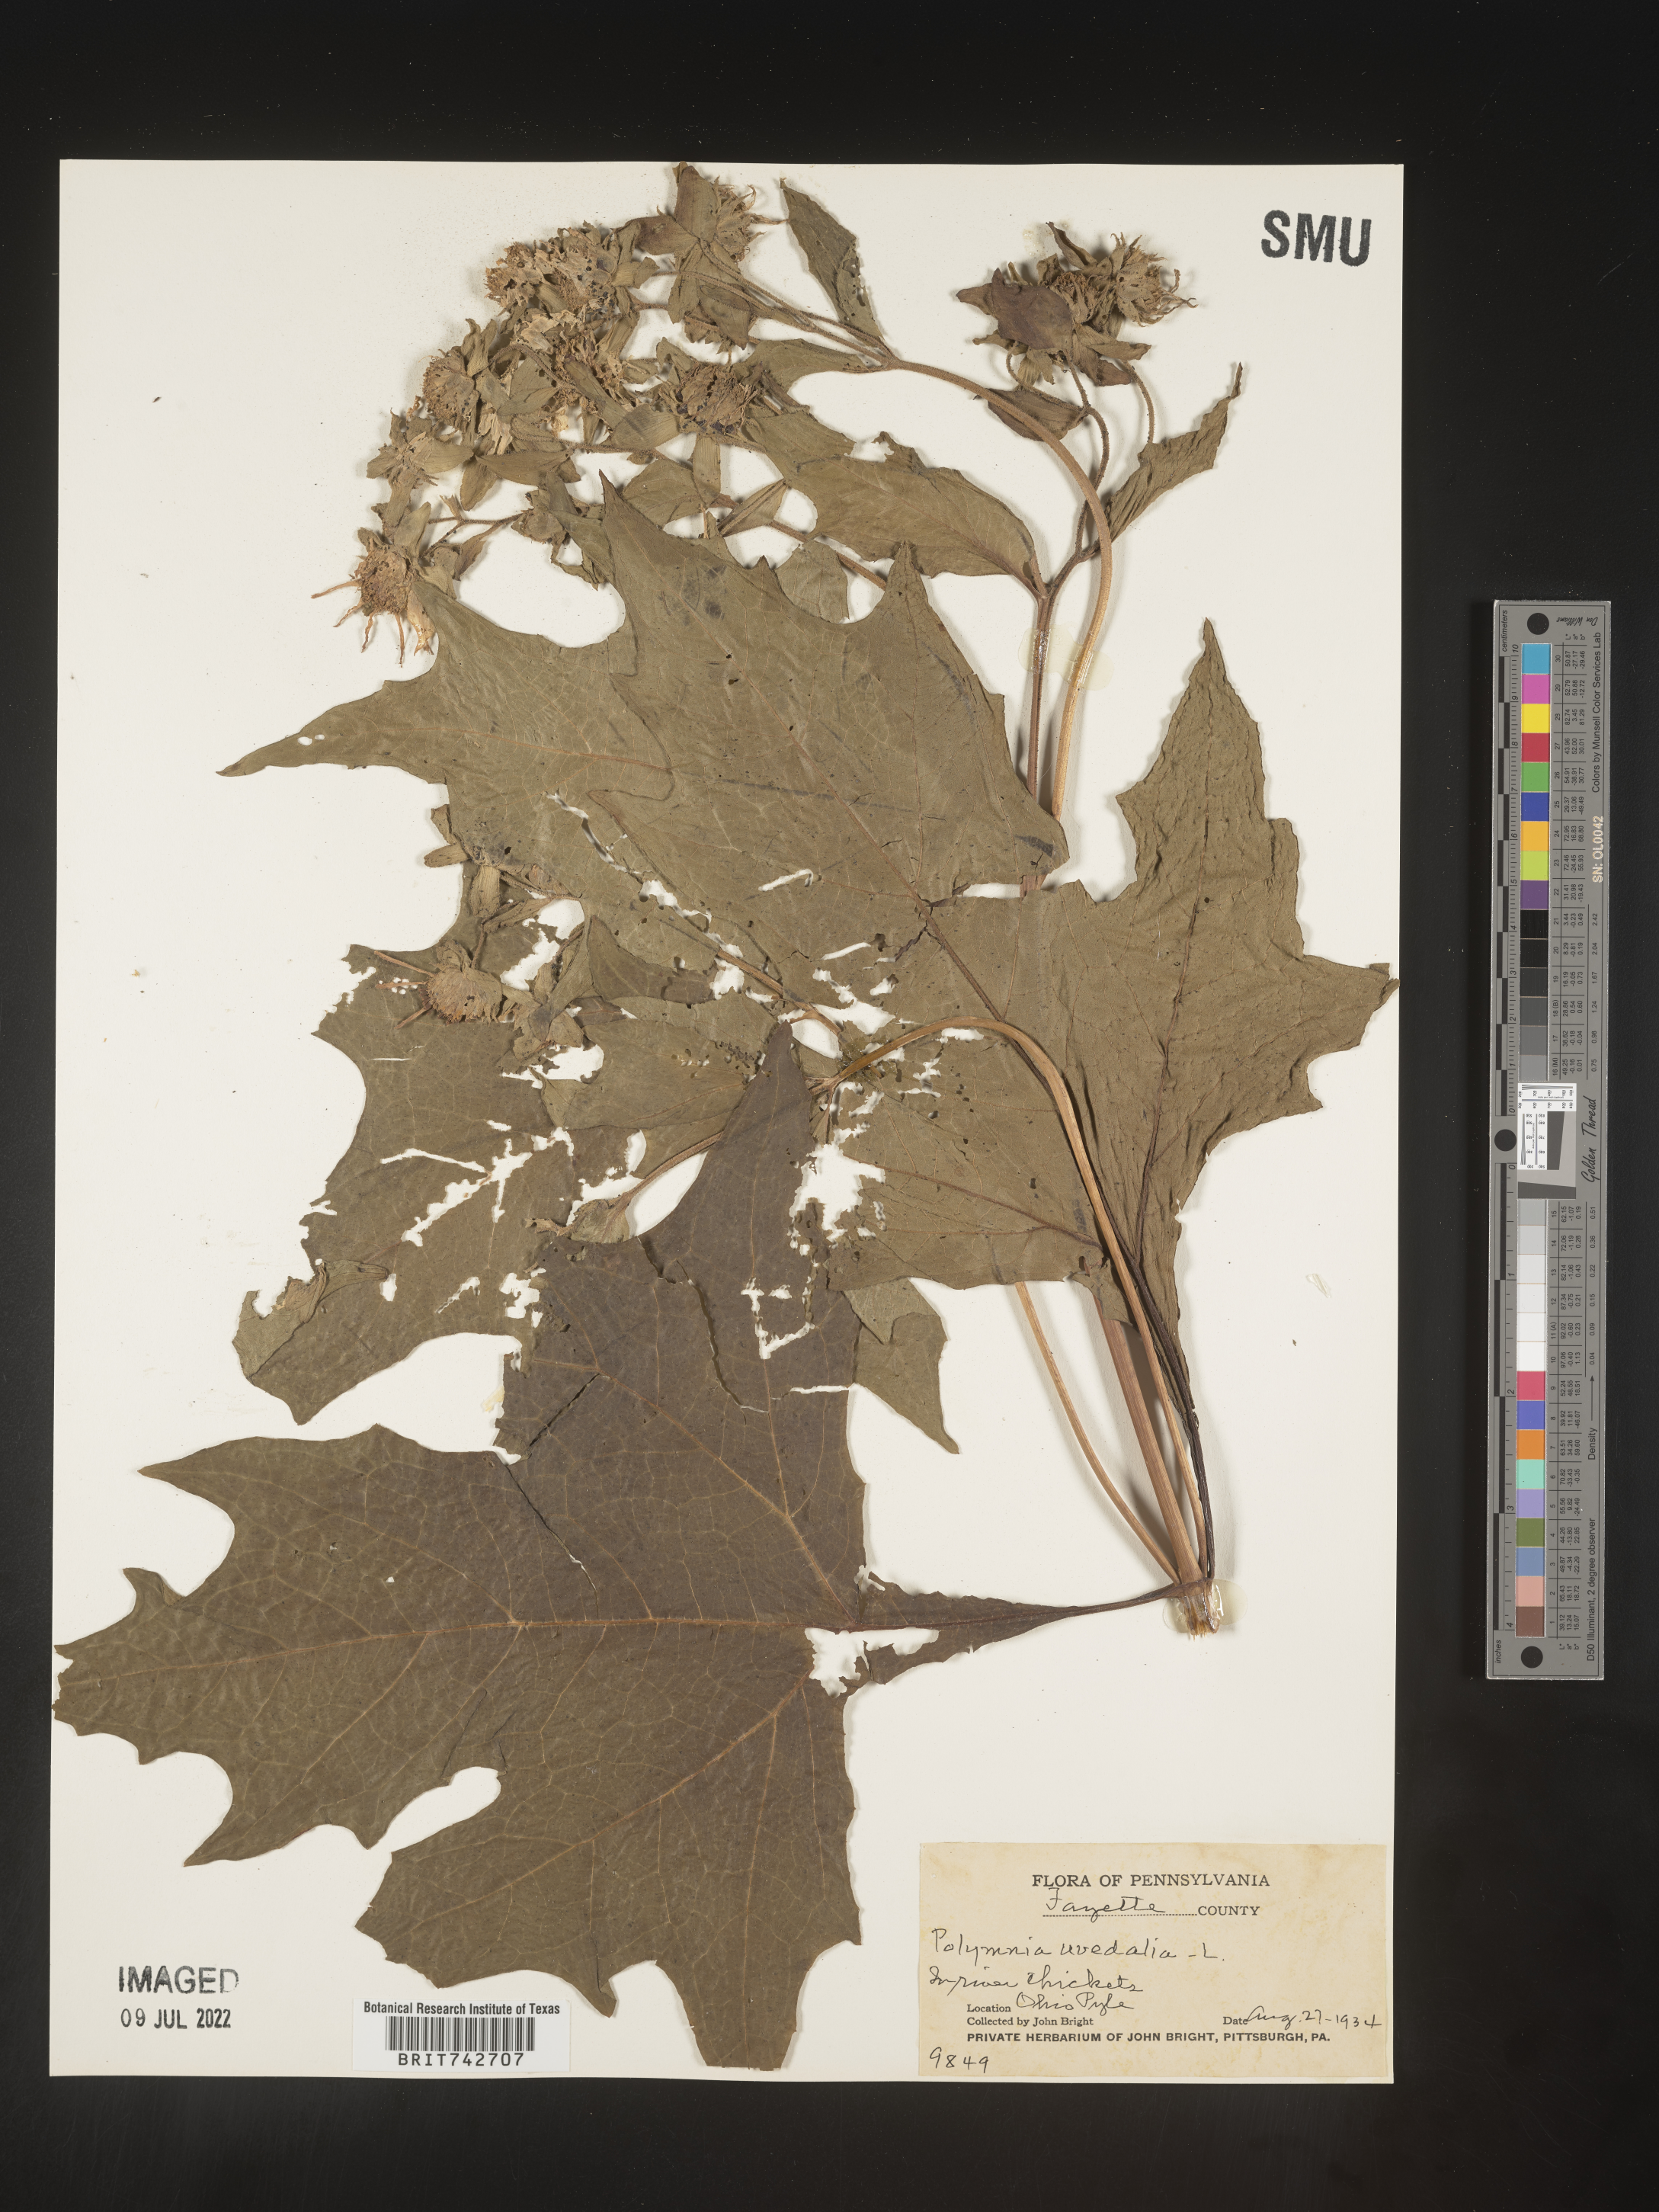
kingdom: Plantae
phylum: Tracheophyta
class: Magnoliopsida
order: Asterales
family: Asteraceae
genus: Smallanthus
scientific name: Smallanthus uvedalia
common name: Bear's-foot
